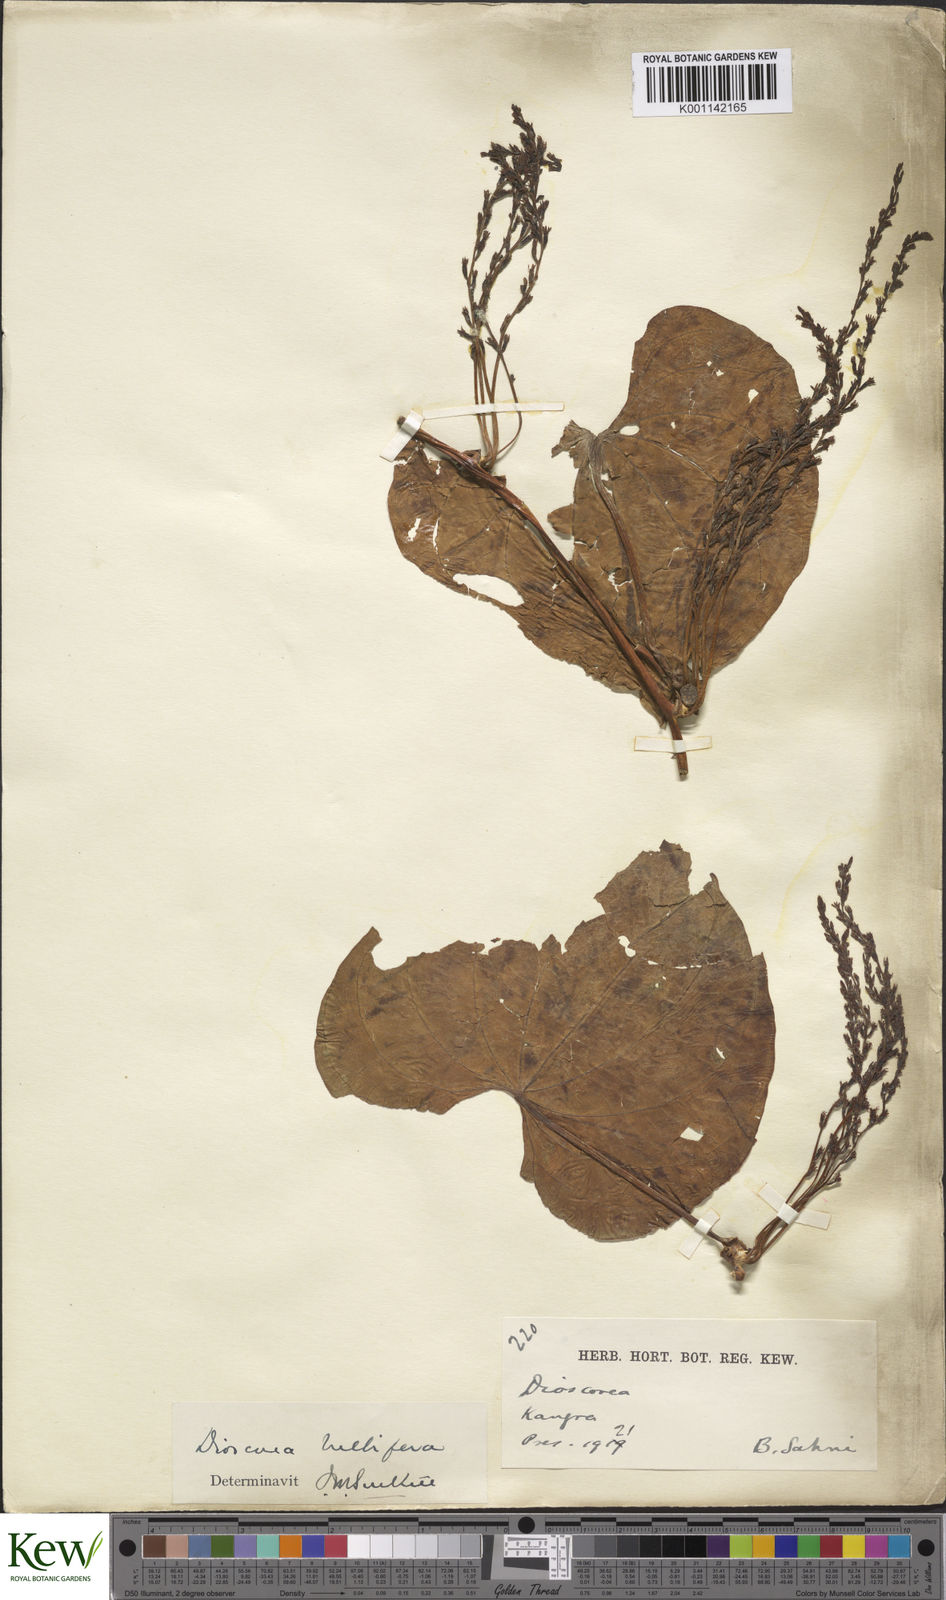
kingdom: Plantae
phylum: Tracheophyta
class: Liliopsida
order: Dioscoreales
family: Dioscoreaceae
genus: Dioscorea
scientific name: Dioscorea bulbifera
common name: Air yam
